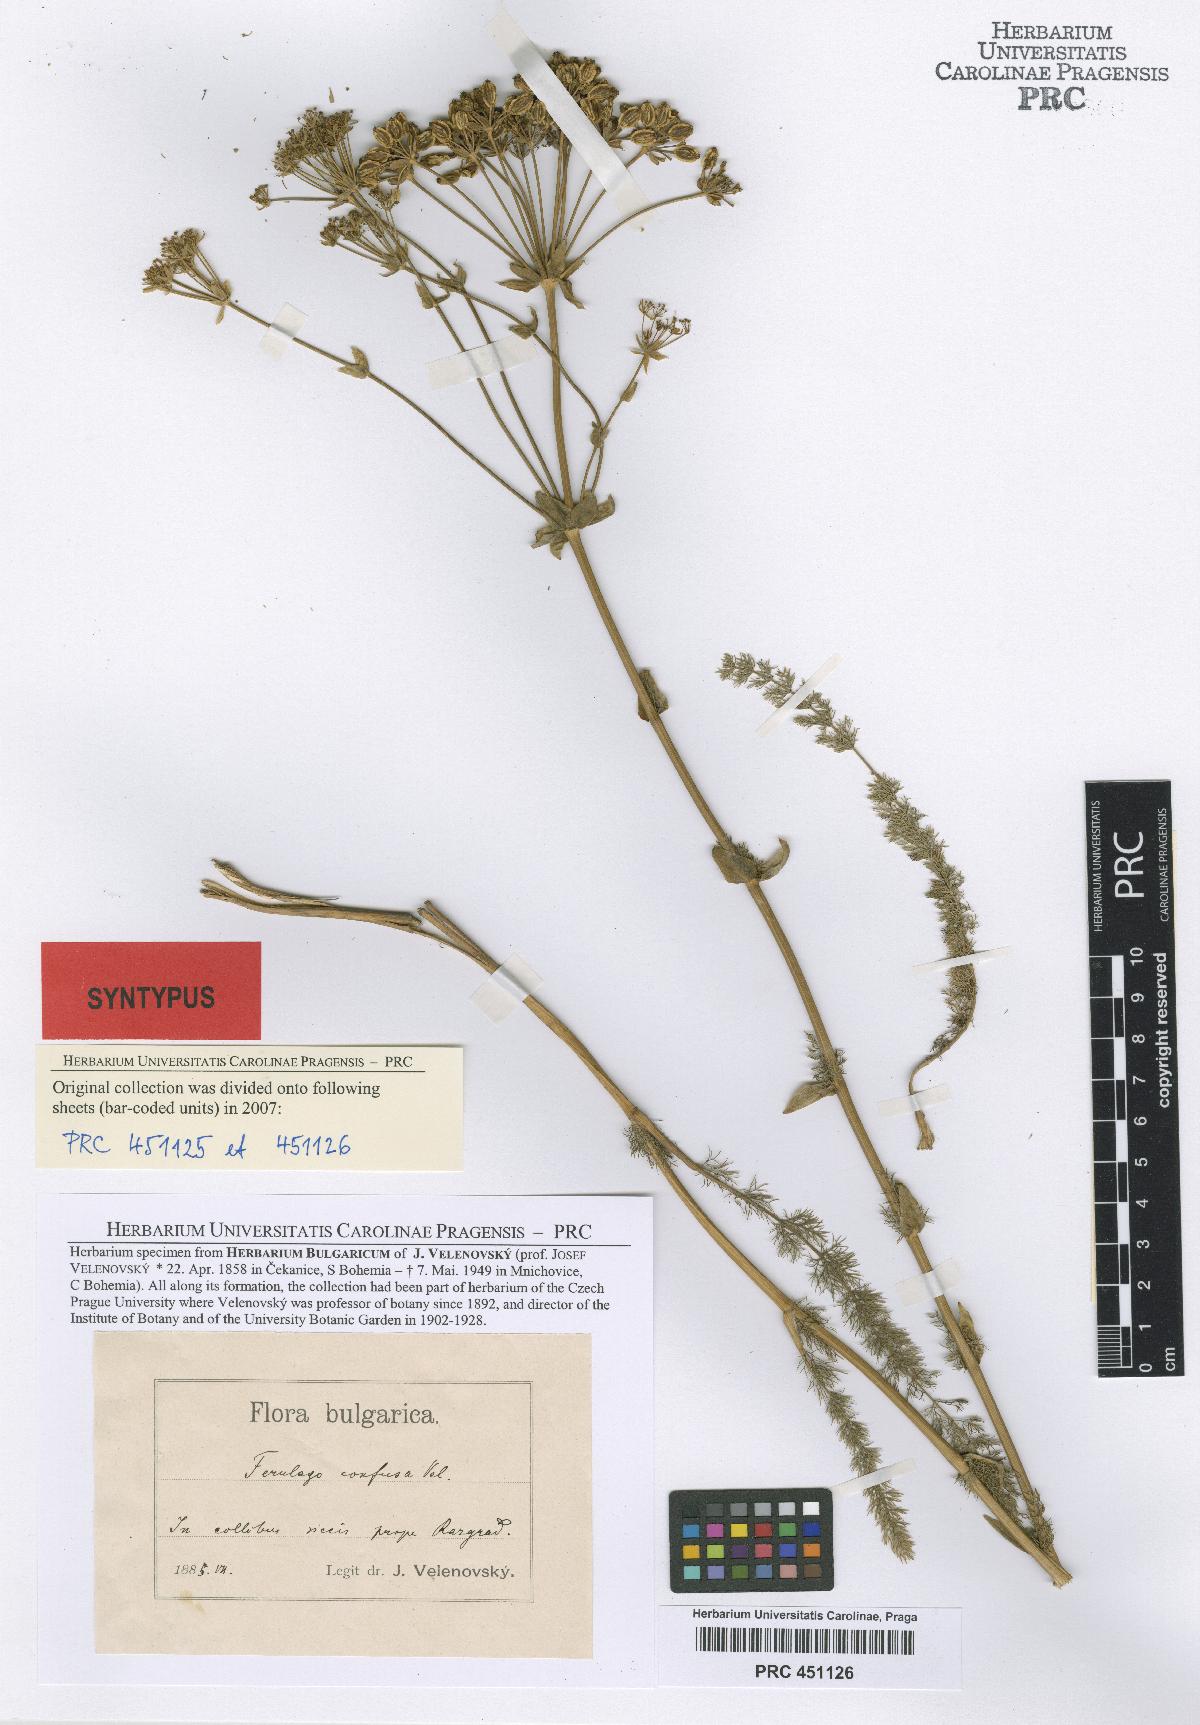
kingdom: Plantae
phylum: Tracheophyta
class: Magnoliopsida
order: Apiales
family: Apiaceae
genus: Ferulago
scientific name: Ferulago sylvatica
